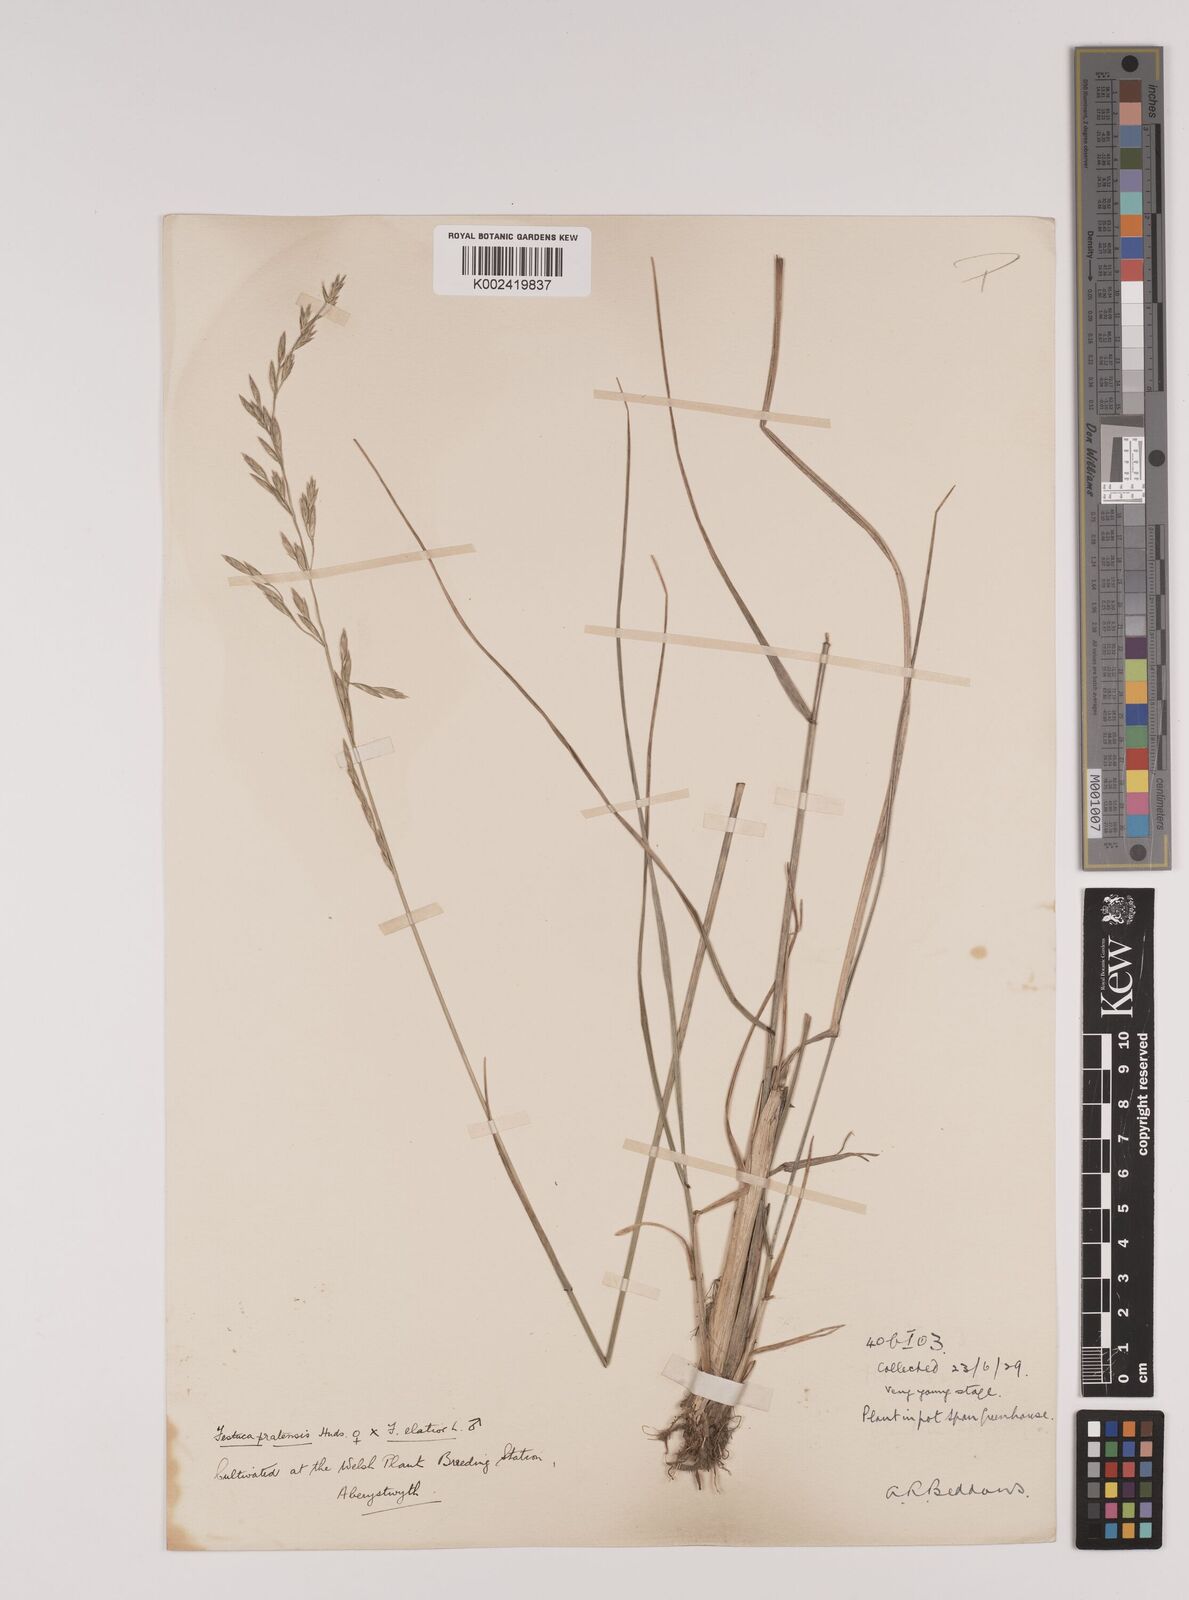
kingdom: Plantae
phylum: Tracheophyta
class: Liliopsida
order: Poales
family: Poaceae
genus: Festuca
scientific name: Festuca rubra
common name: Red fescue
